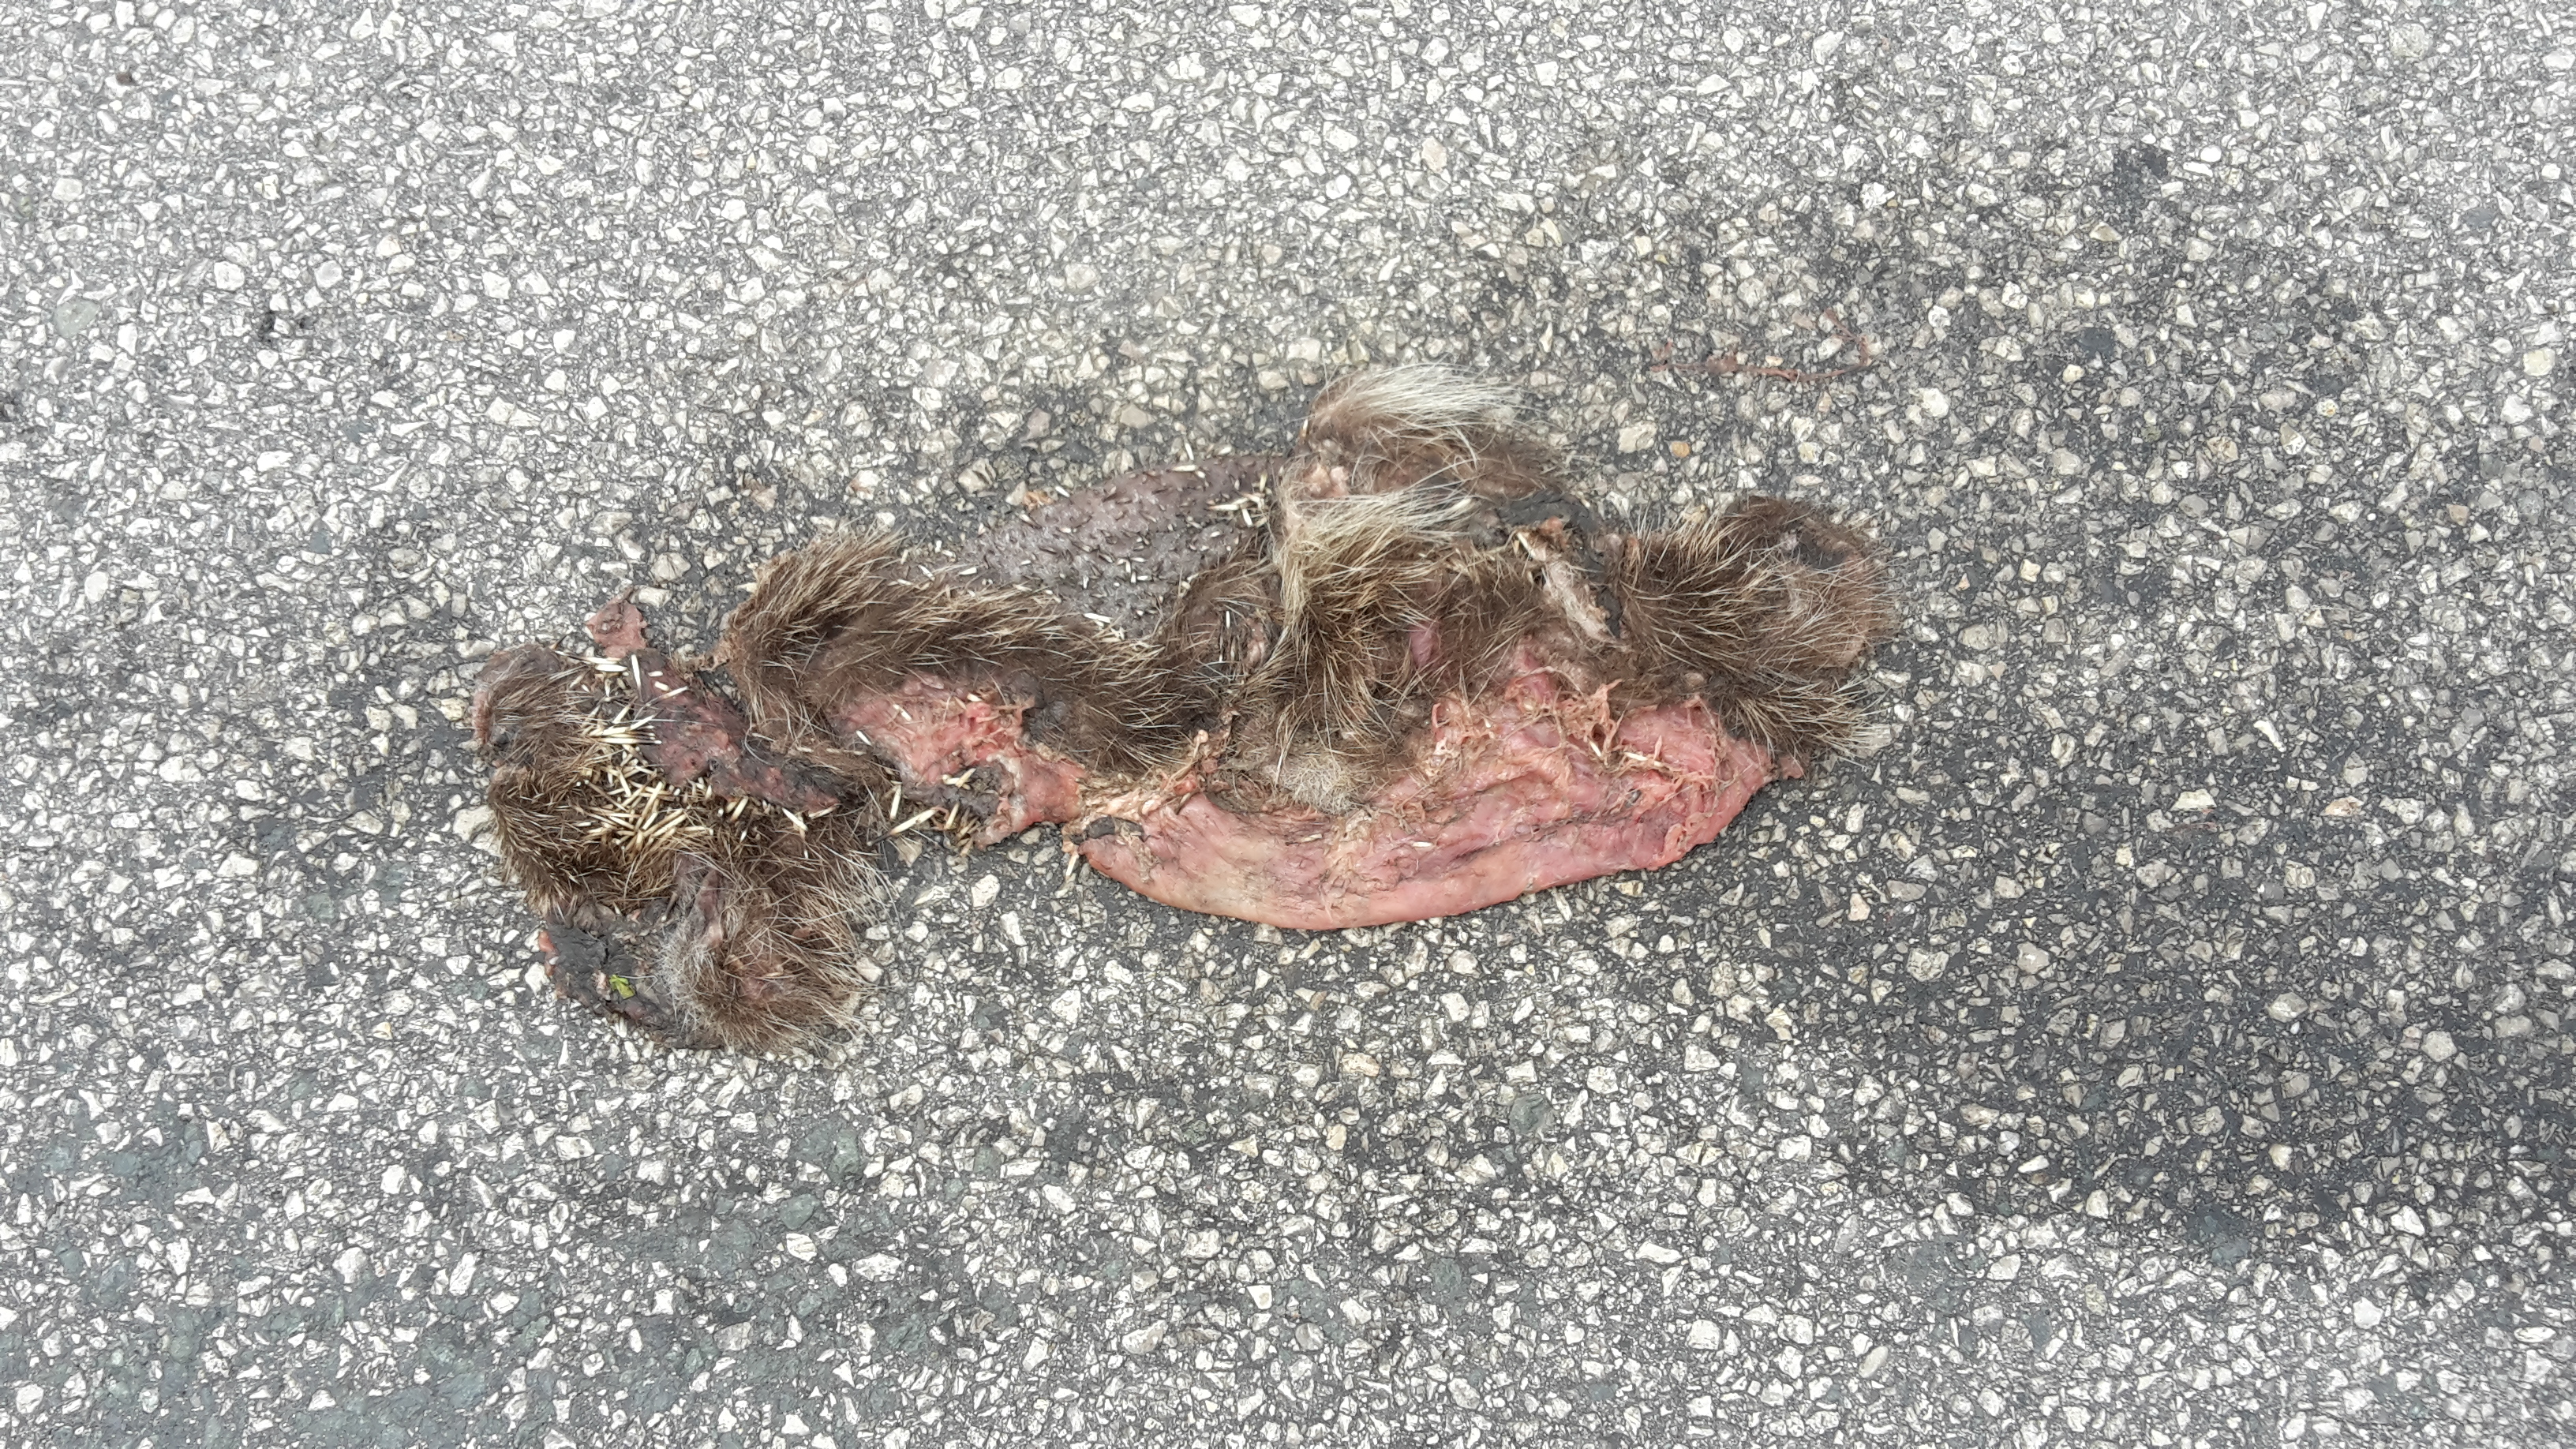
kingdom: Animalia
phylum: Chordata
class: Mammalia
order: Erinaceomorpha
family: Erinaceidae
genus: Erinaceus
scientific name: Erinaceus
